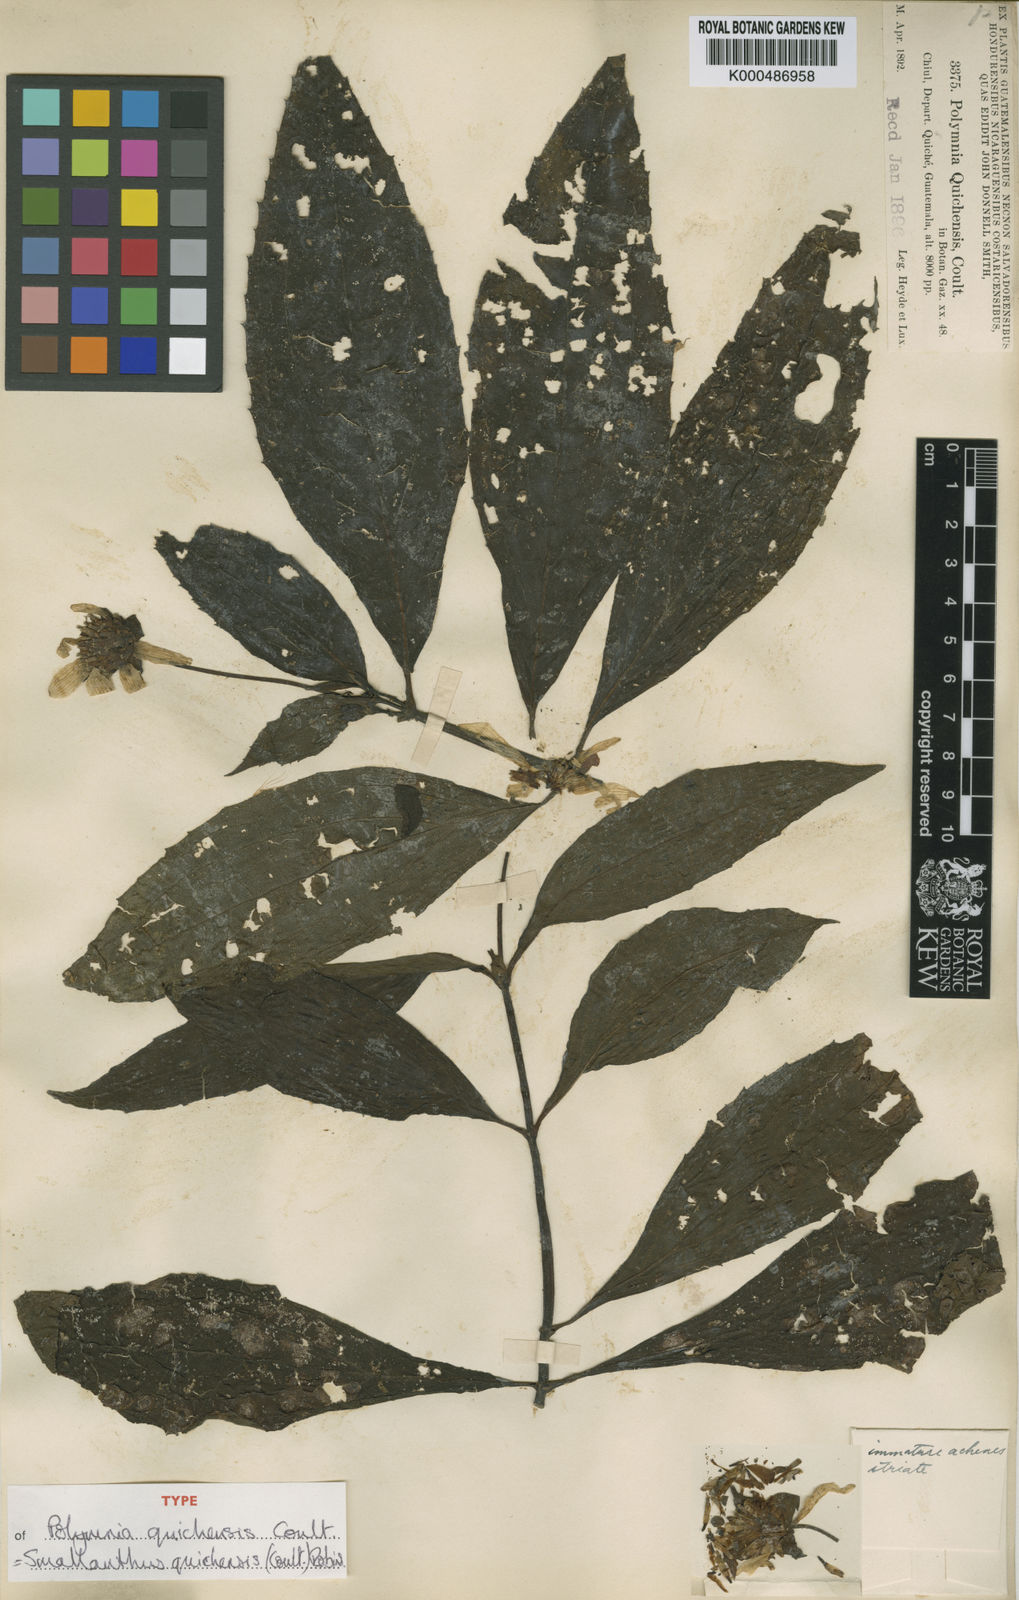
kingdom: Plantae
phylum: Tracheophyta
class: Magnoliopsida
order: Asterales
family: Asteraceae
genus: Smallanthus
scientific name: Smallanthus quichensis
